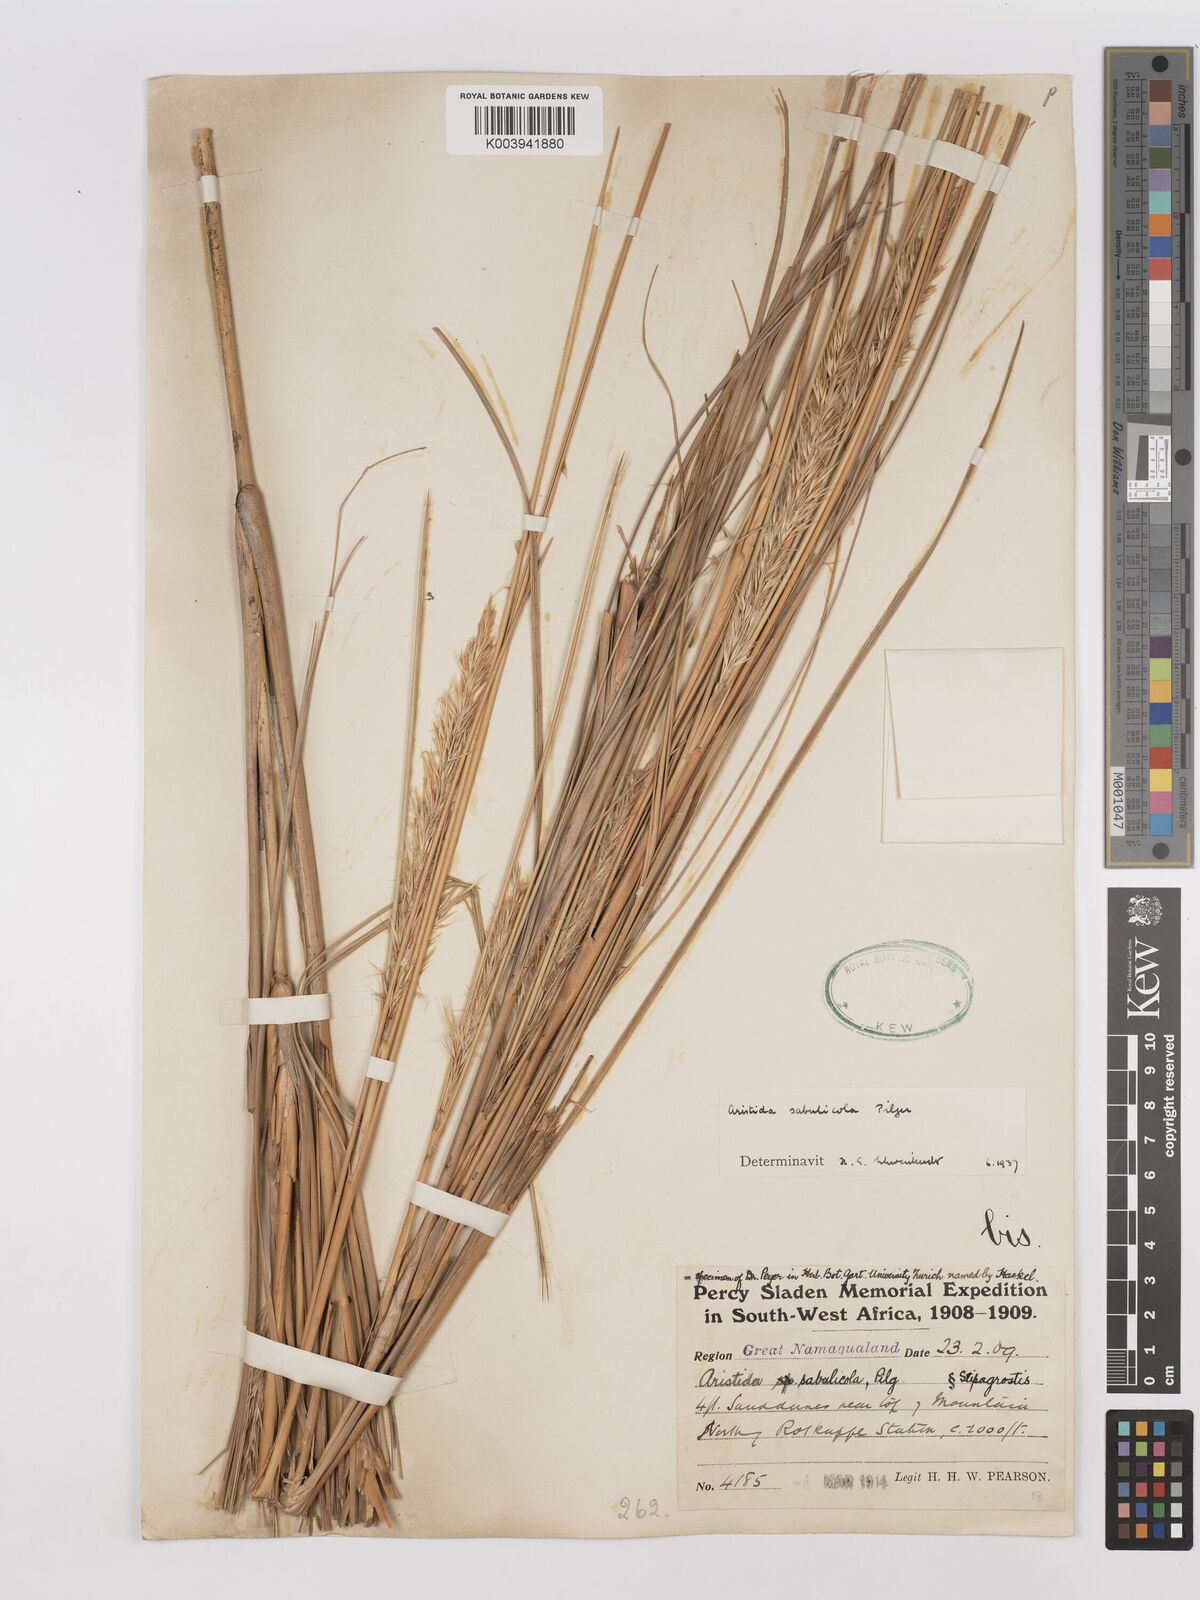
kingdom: Plantae
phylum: Tracheophyta
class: Liliopsida
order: Poales
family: Poaceae
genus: Stipagrostis
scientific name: Stipagrostis sabulicola
